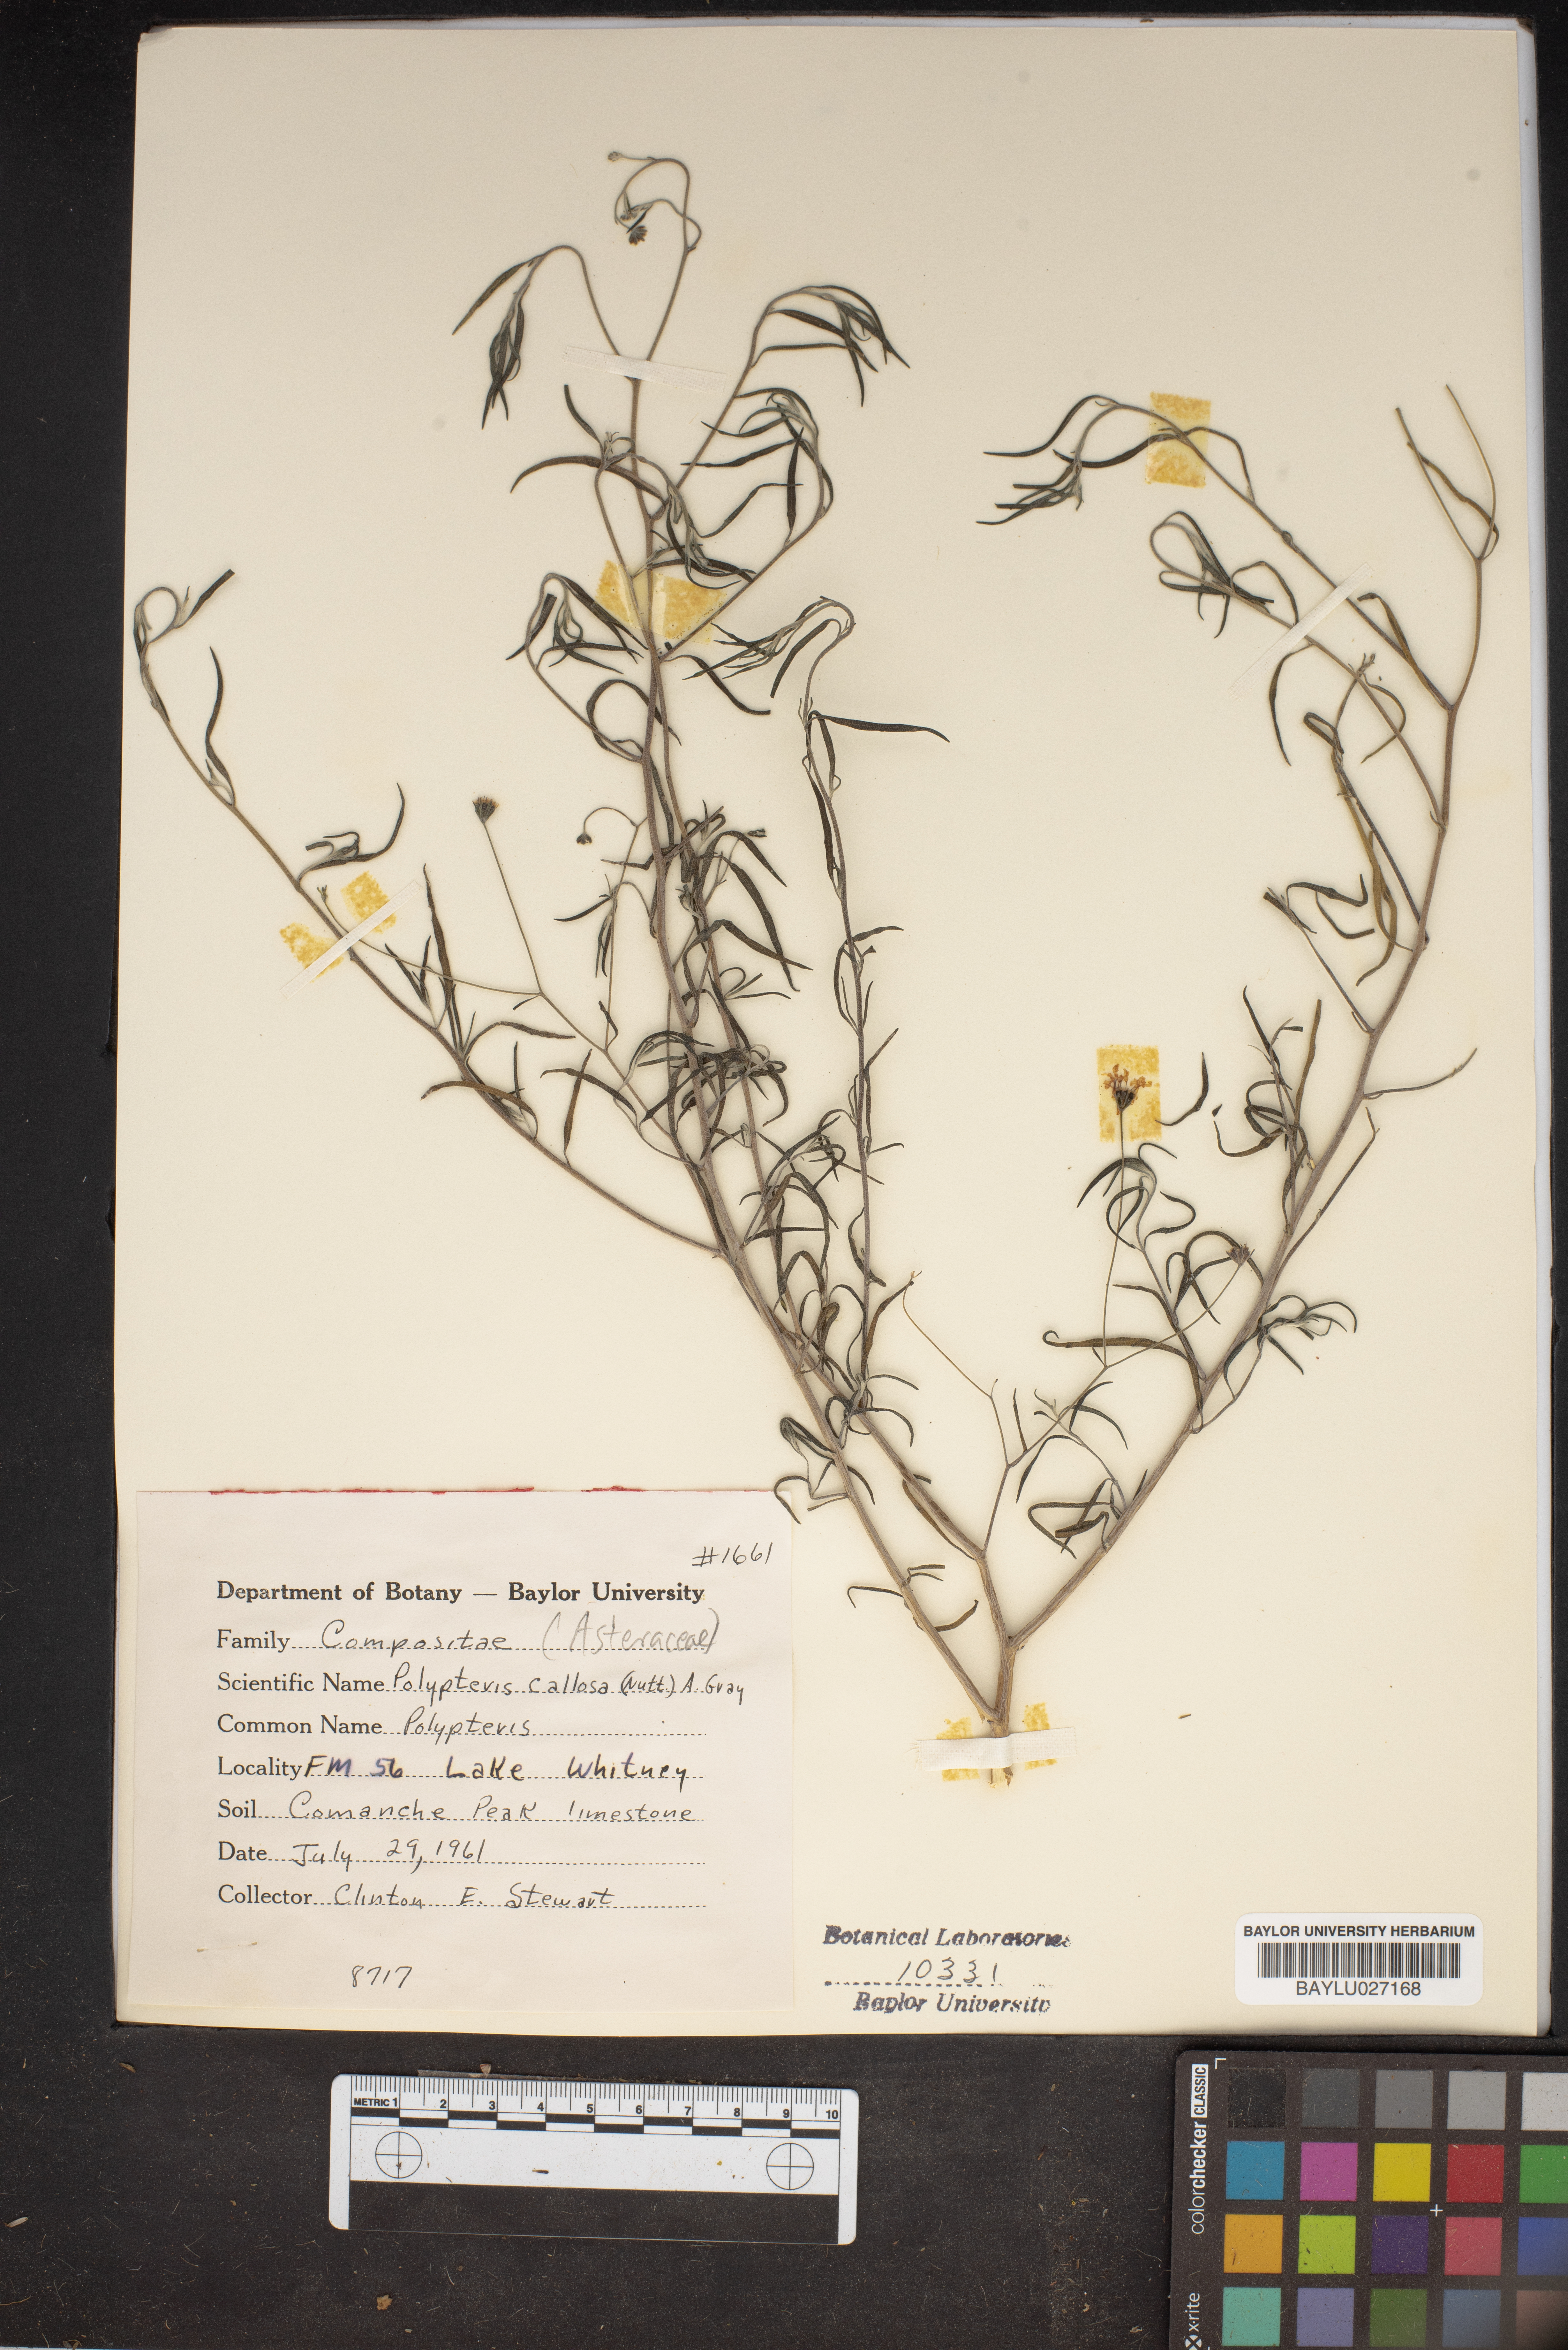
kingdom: Plantae
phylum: Tracheophyta
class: Magnoliopsida
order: Asterales
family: Asteraceae
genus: Palafoxia
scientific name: Palafoxia callosa
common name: Small palafox
